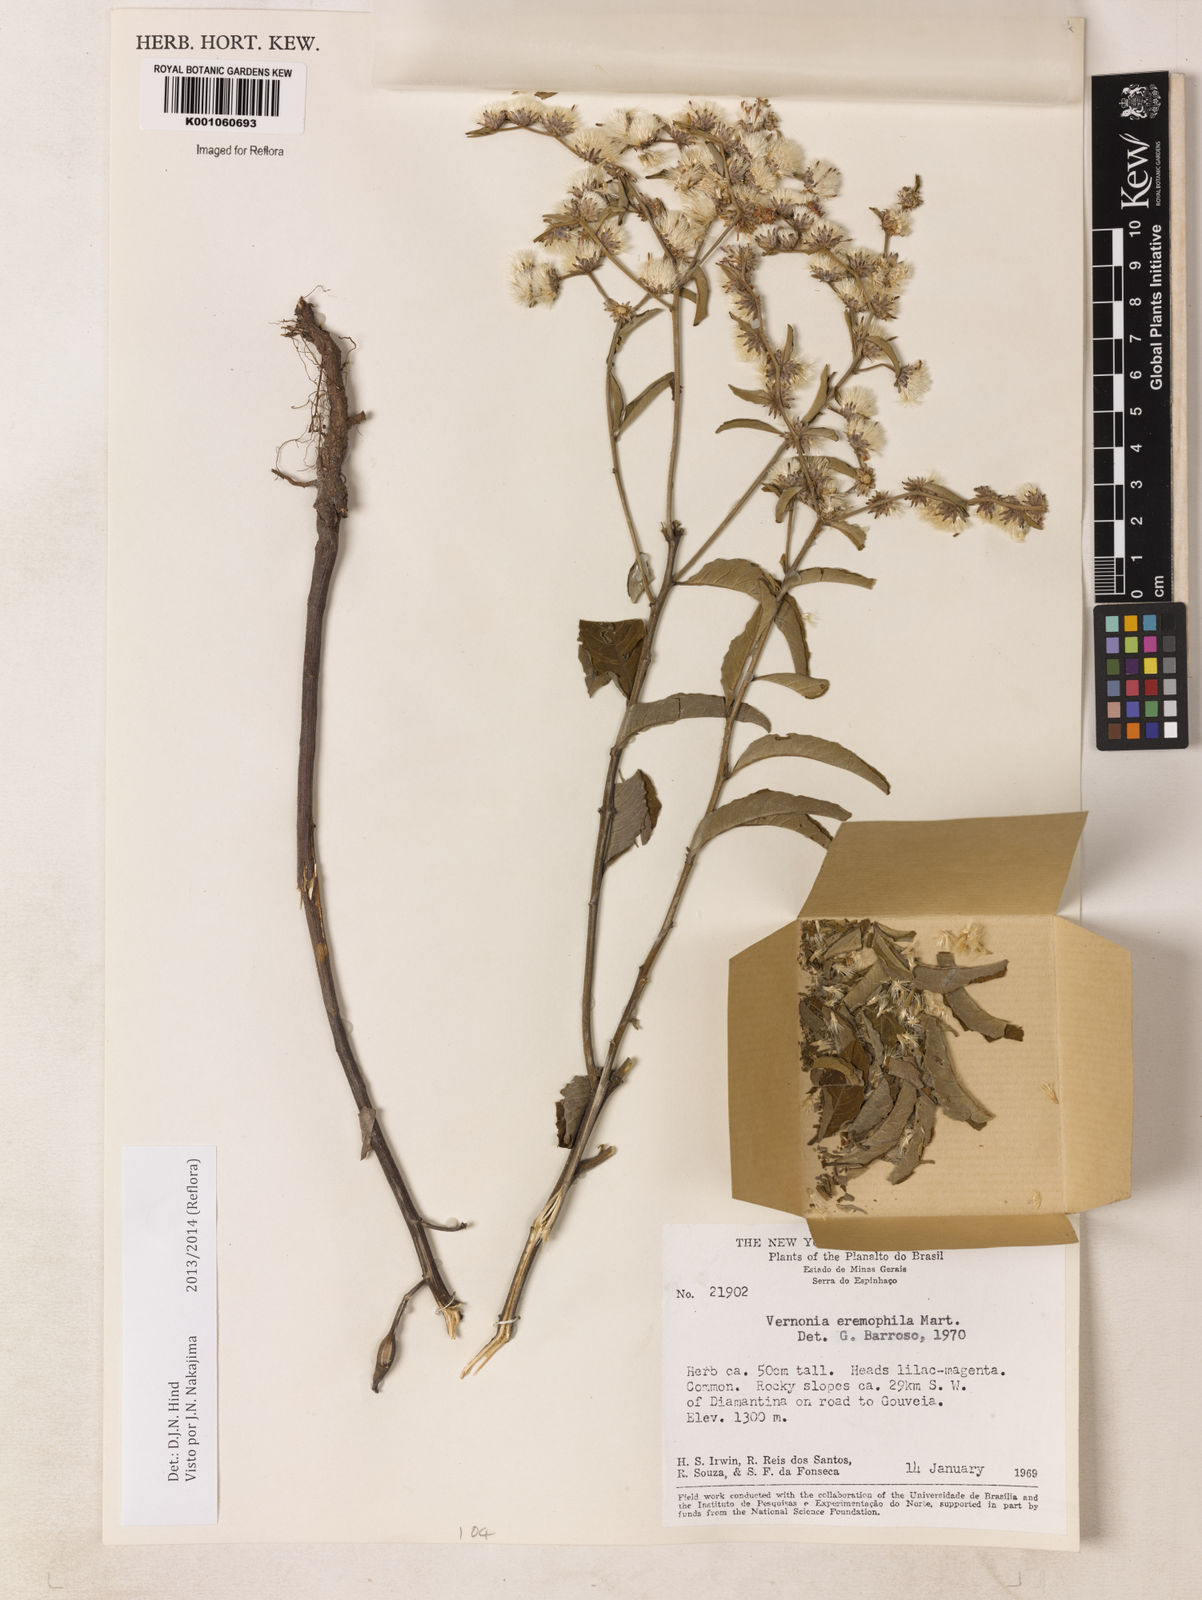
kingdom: Plantae
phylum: Tracheophyta
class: Magnoliopsida
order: Asterales
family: Asteraceae
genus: Lepidaploa
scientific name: Lepidaploa rufogrisea
